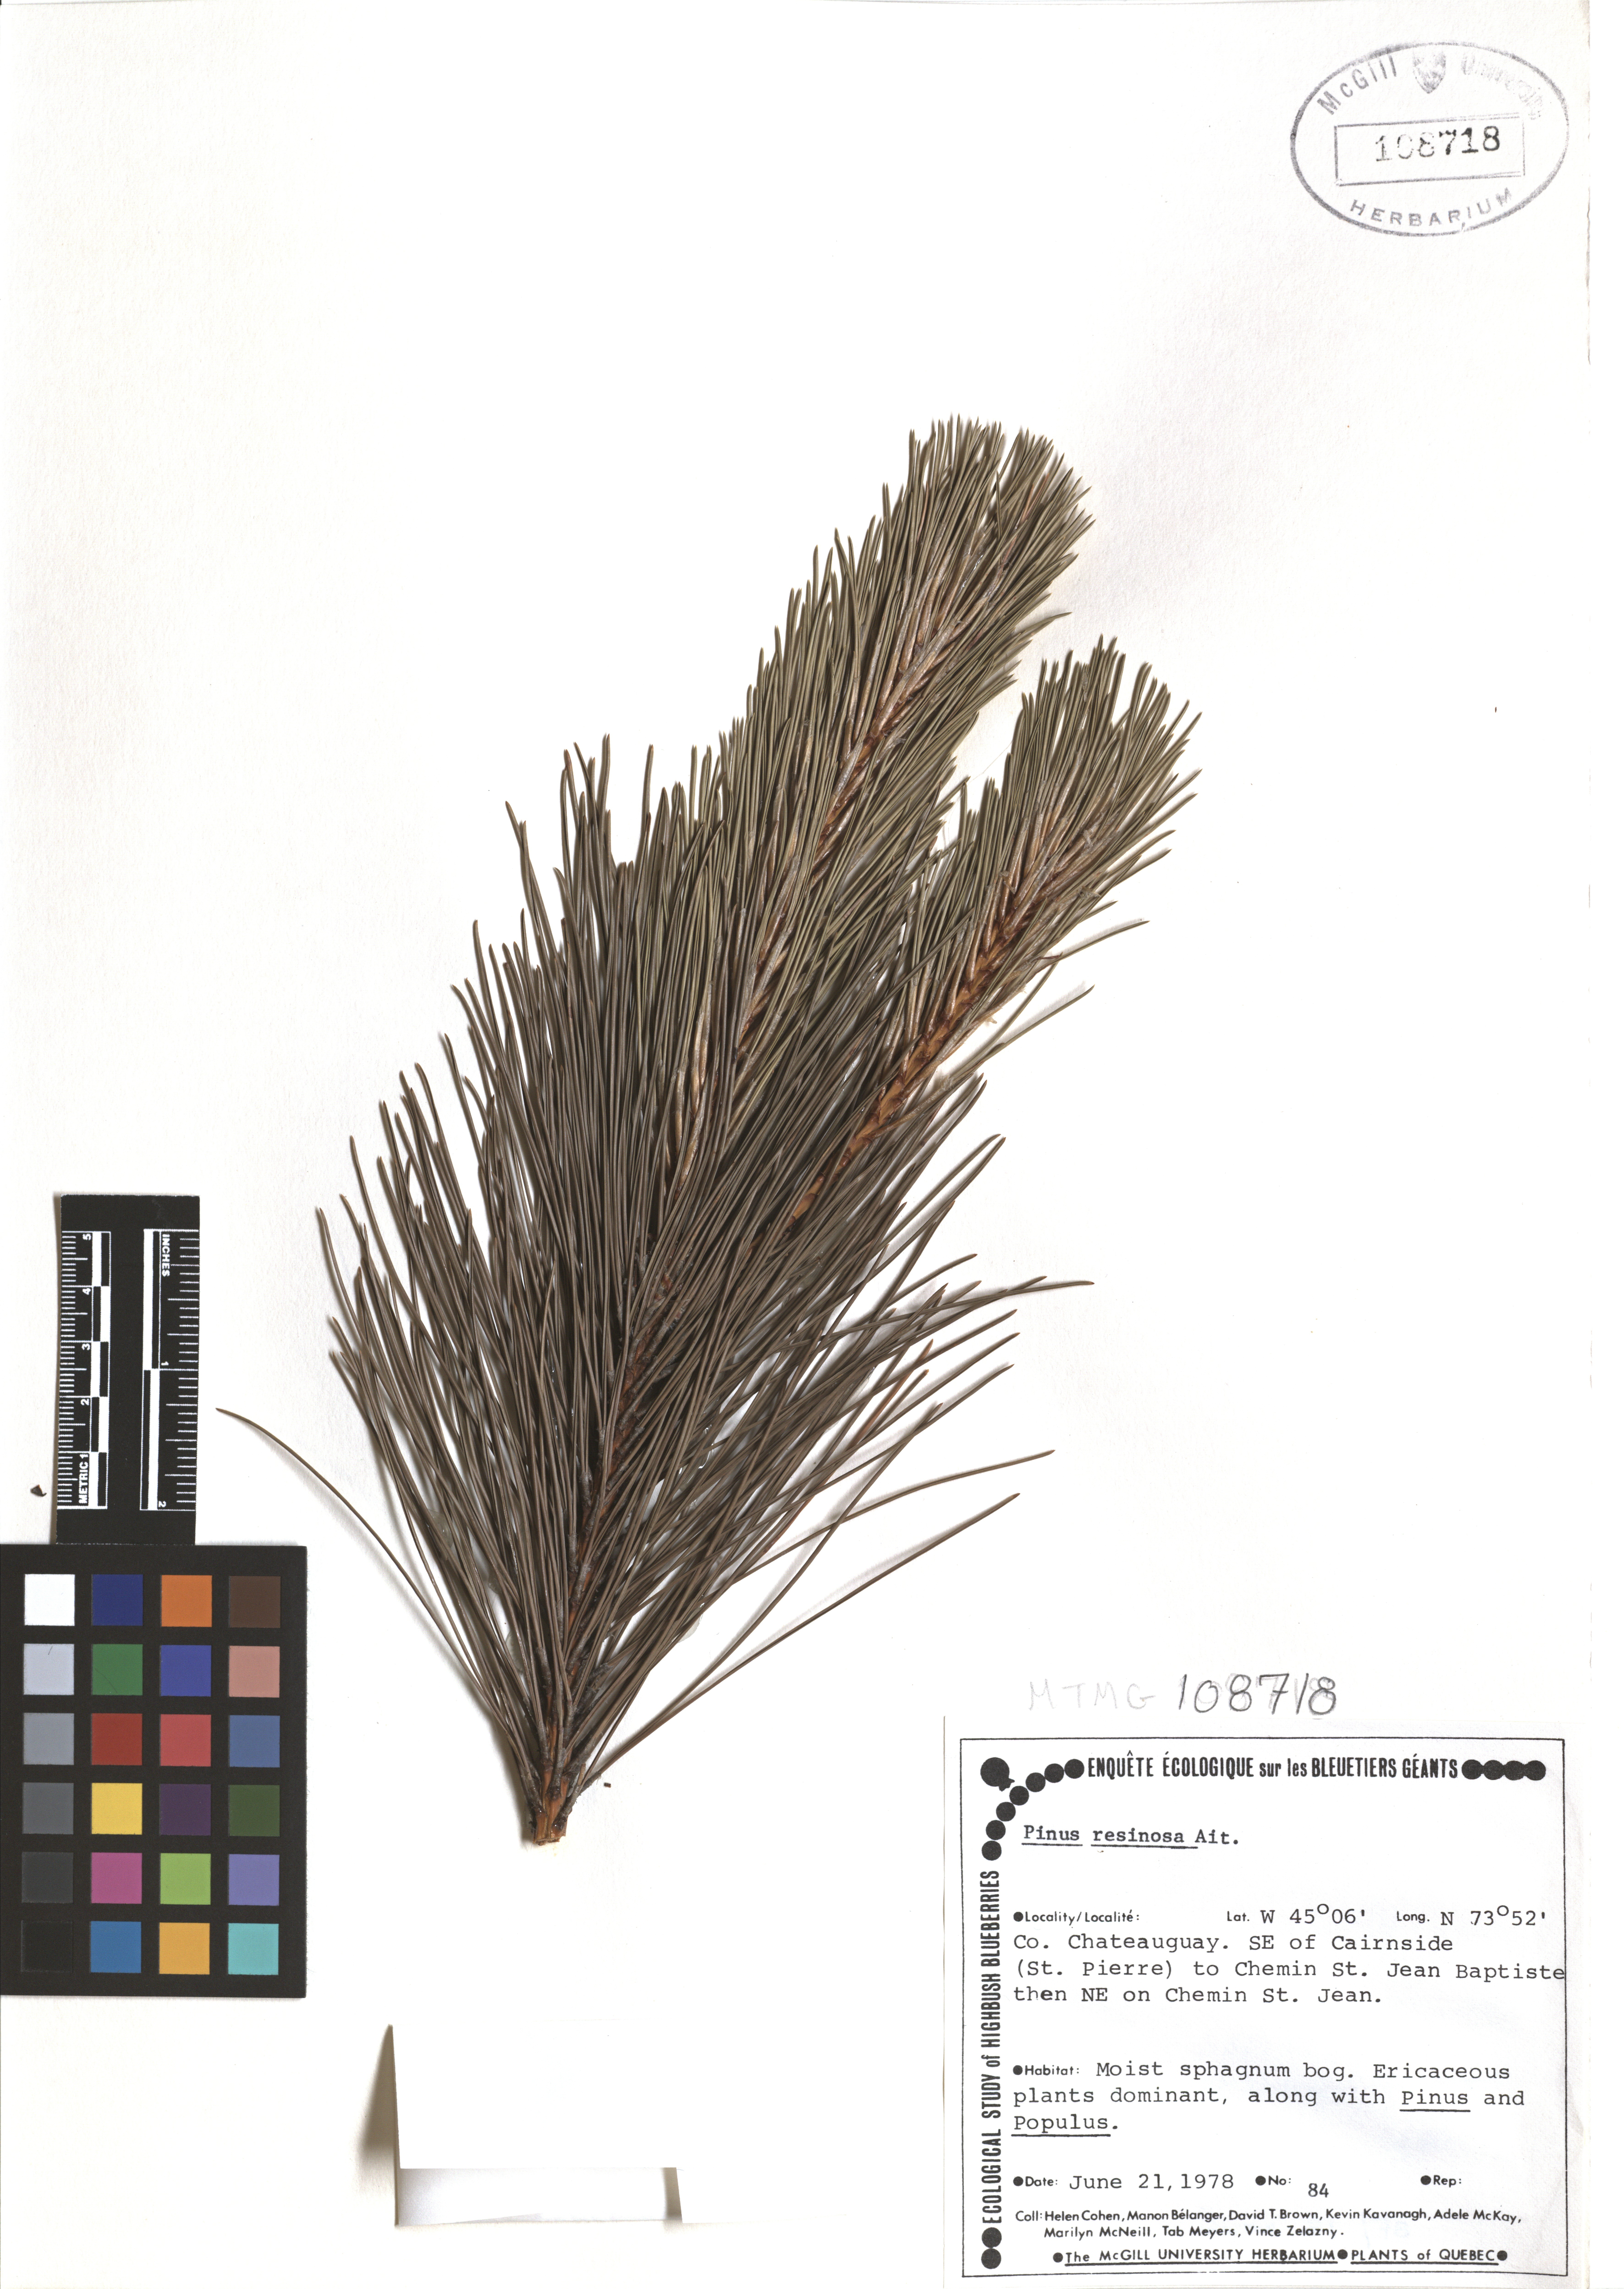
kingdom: Plantae
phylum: Tracheophyta
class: Pinopsida
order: Pinales
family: Pinaceae
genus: Pinus
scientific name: Pinus hartwegii
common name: Hartweg's pine
